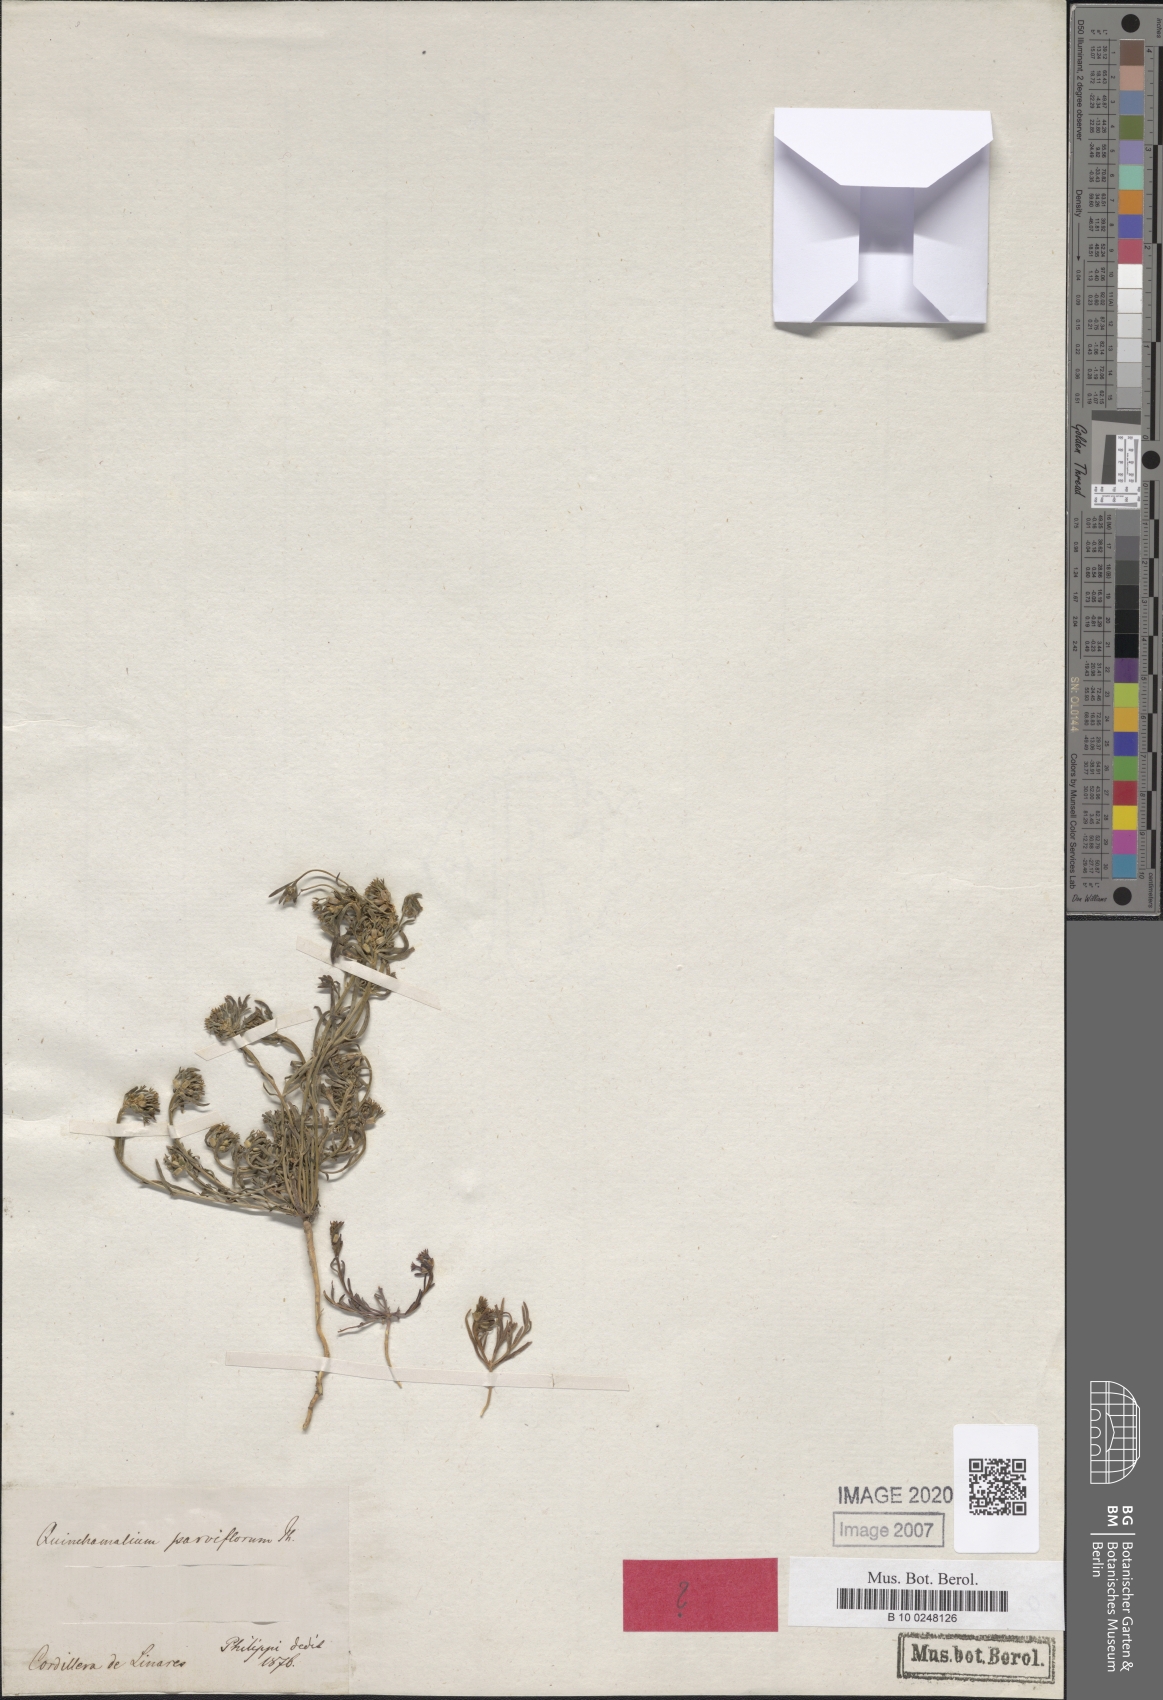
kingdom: Plantae
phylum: Tracheophyta
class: Magnoliopsida
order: Santalales
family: Schoepfiaceae
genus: Quinchamalium
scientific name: Quinchamalium chilense
